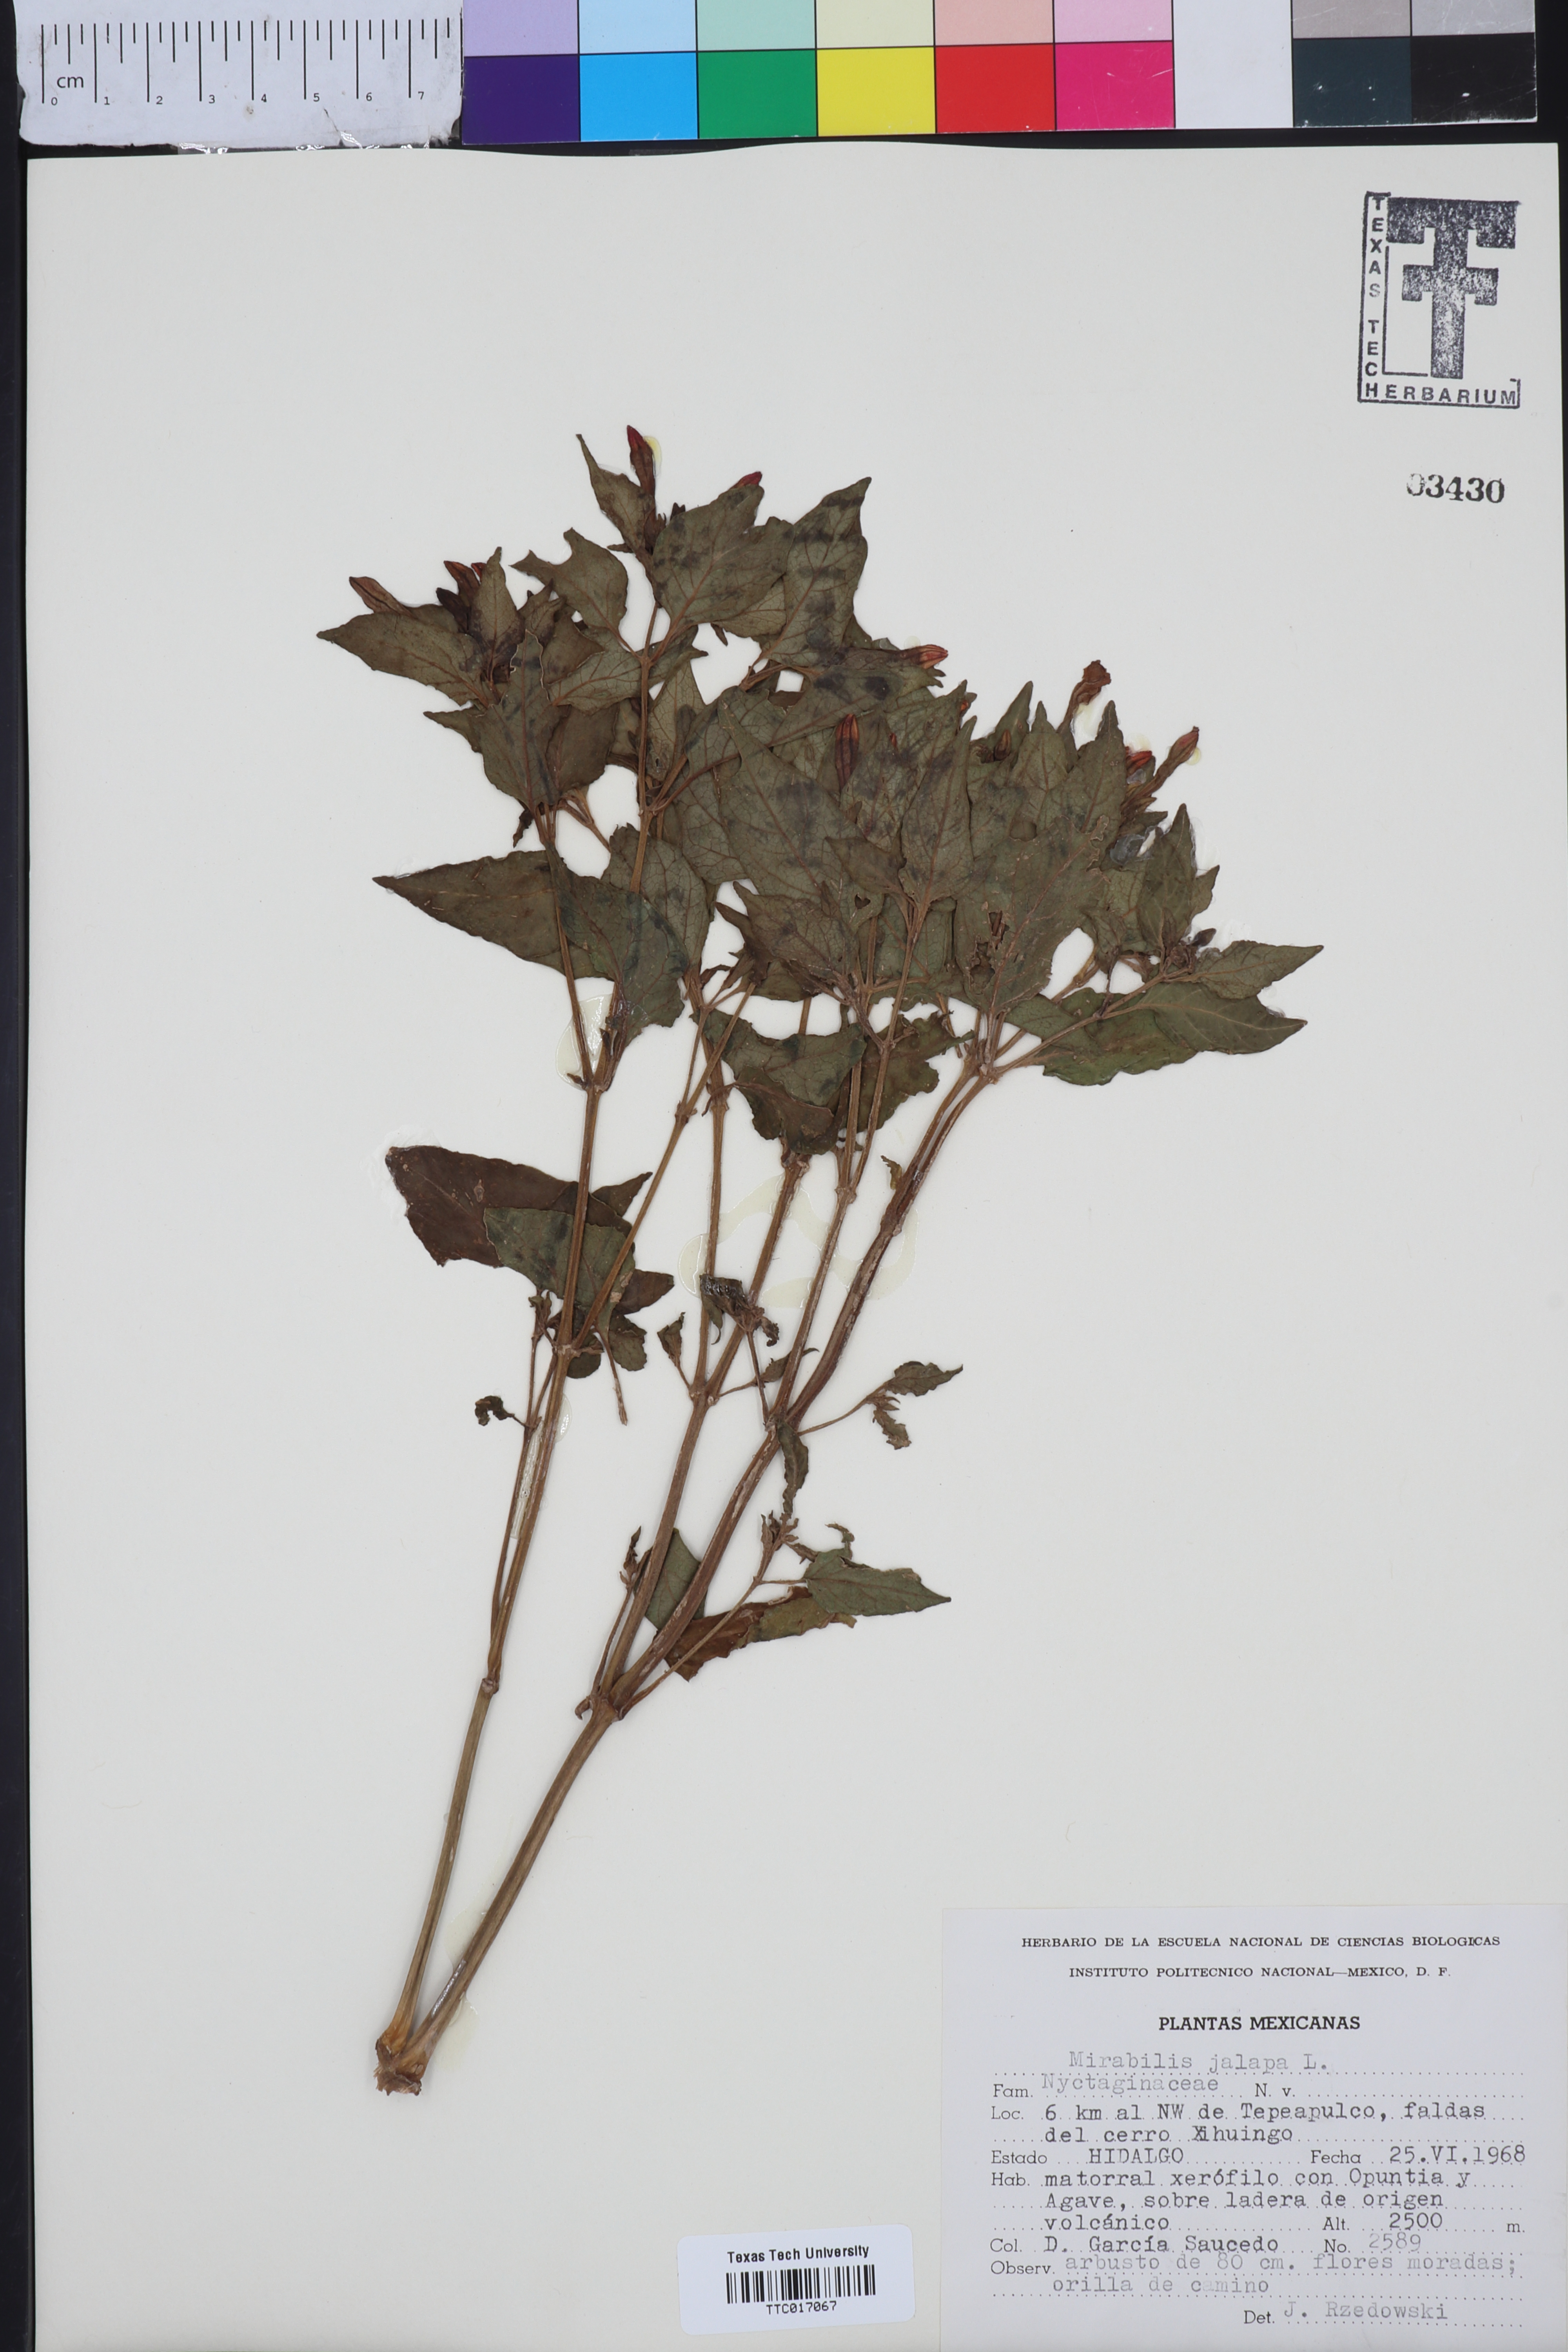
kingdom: Plantae
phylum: Tracheophyta
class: Magnoliopsida
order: Caryophyllales
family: Nyctaginaceae
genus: Mirabilis
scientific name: Mirabilis jalapa
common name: Marvel-of-peru
